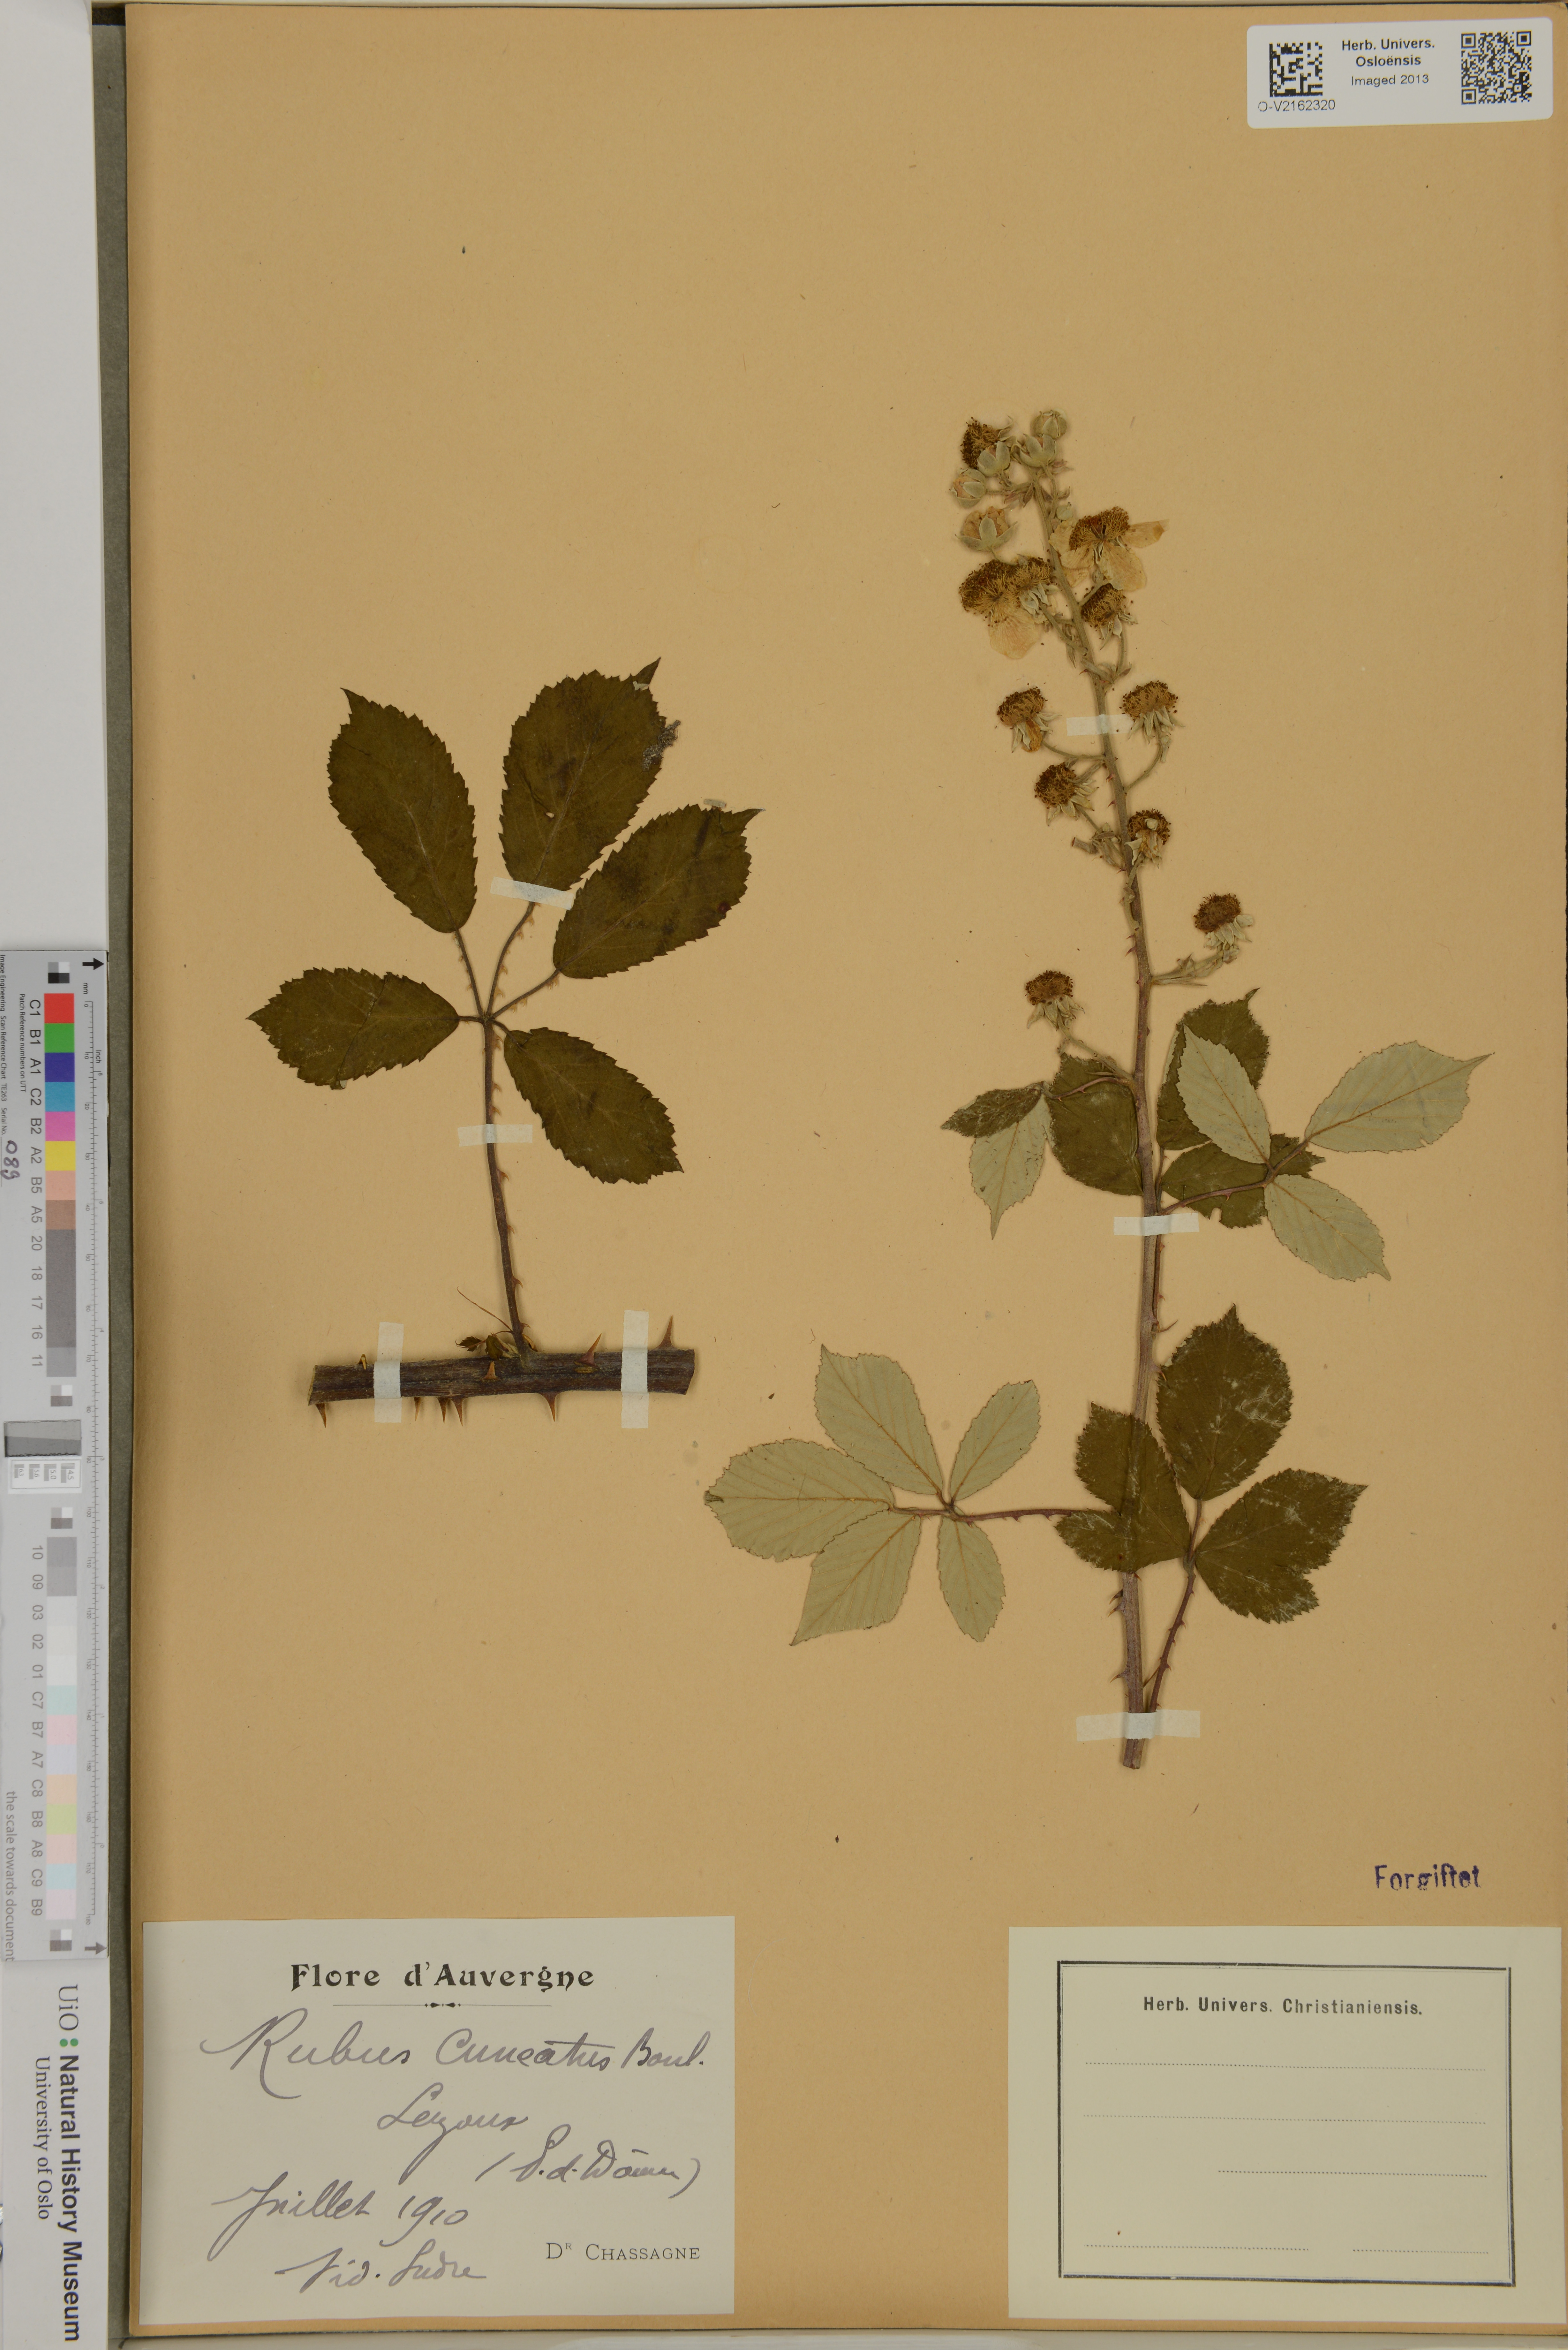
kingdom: Plantae
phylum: Tracheophyta
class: Magnoliopsida
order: Rosales
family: Rosaceae
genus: Rubus
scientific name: Rubus cuneatus
